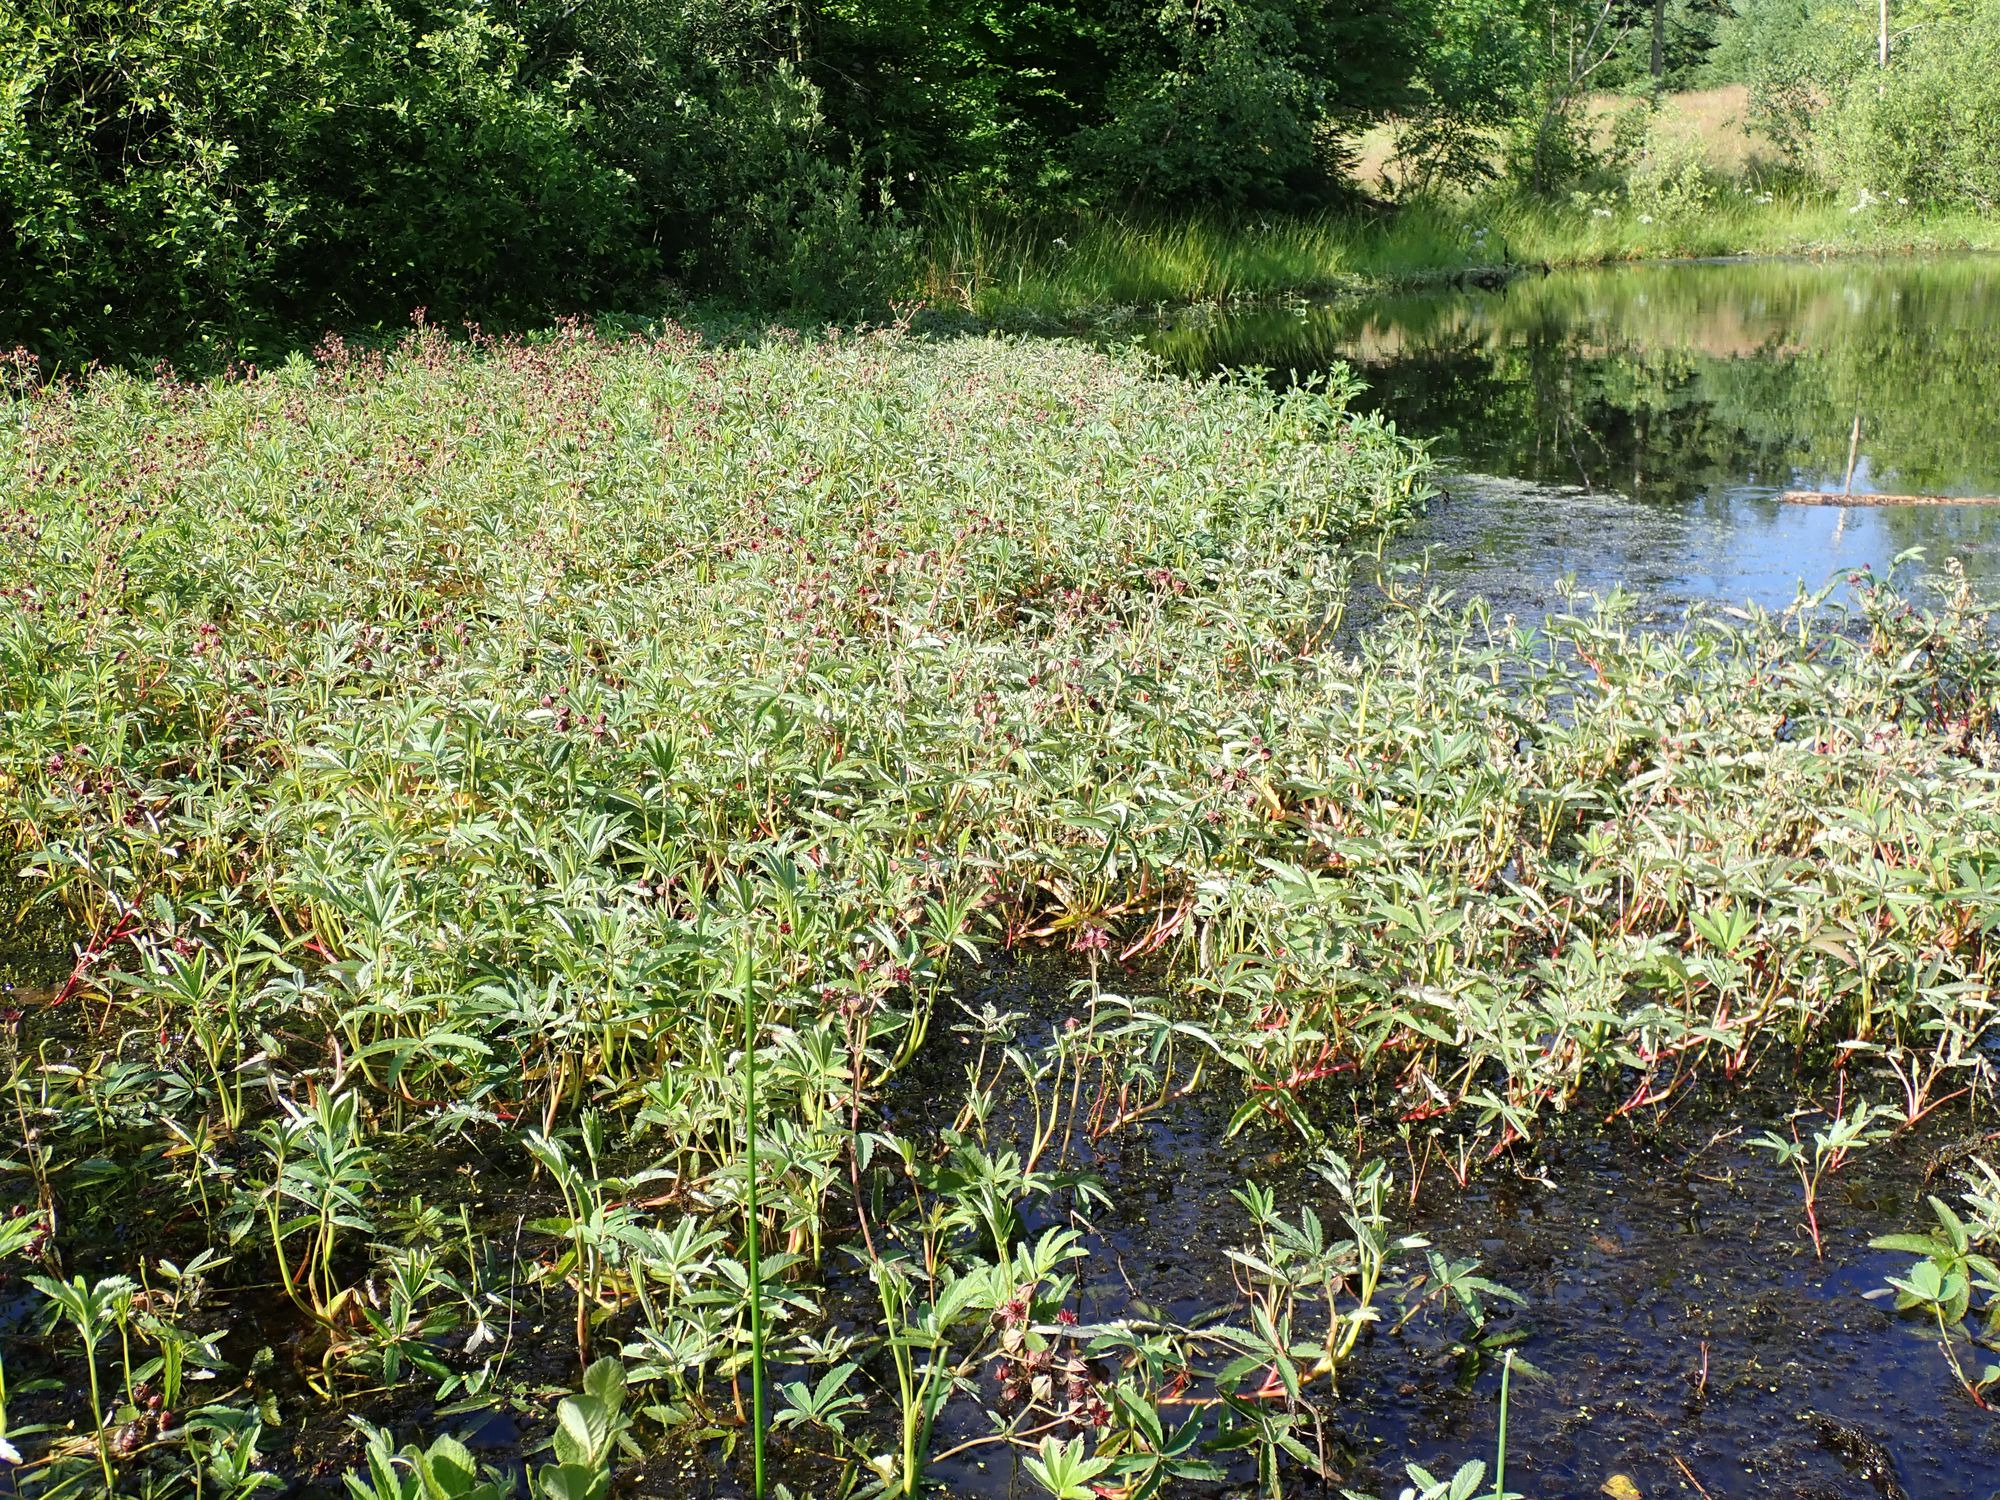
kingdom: Plantae
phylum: Tracheophyta
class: Magnoliopsida
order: Rosales
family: Rosaceae
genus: Comarum
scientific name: Comarum palustre
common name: Kragefod
